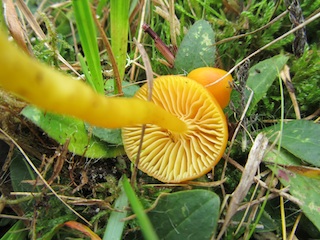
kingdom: Fungi
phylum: Basidiomycota
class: Agaricomycetes
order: Agaricales
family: Hygrophoraceae
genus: Hygrocybe
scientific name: Hygrocybe ceracea
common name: voksgul vokshat
